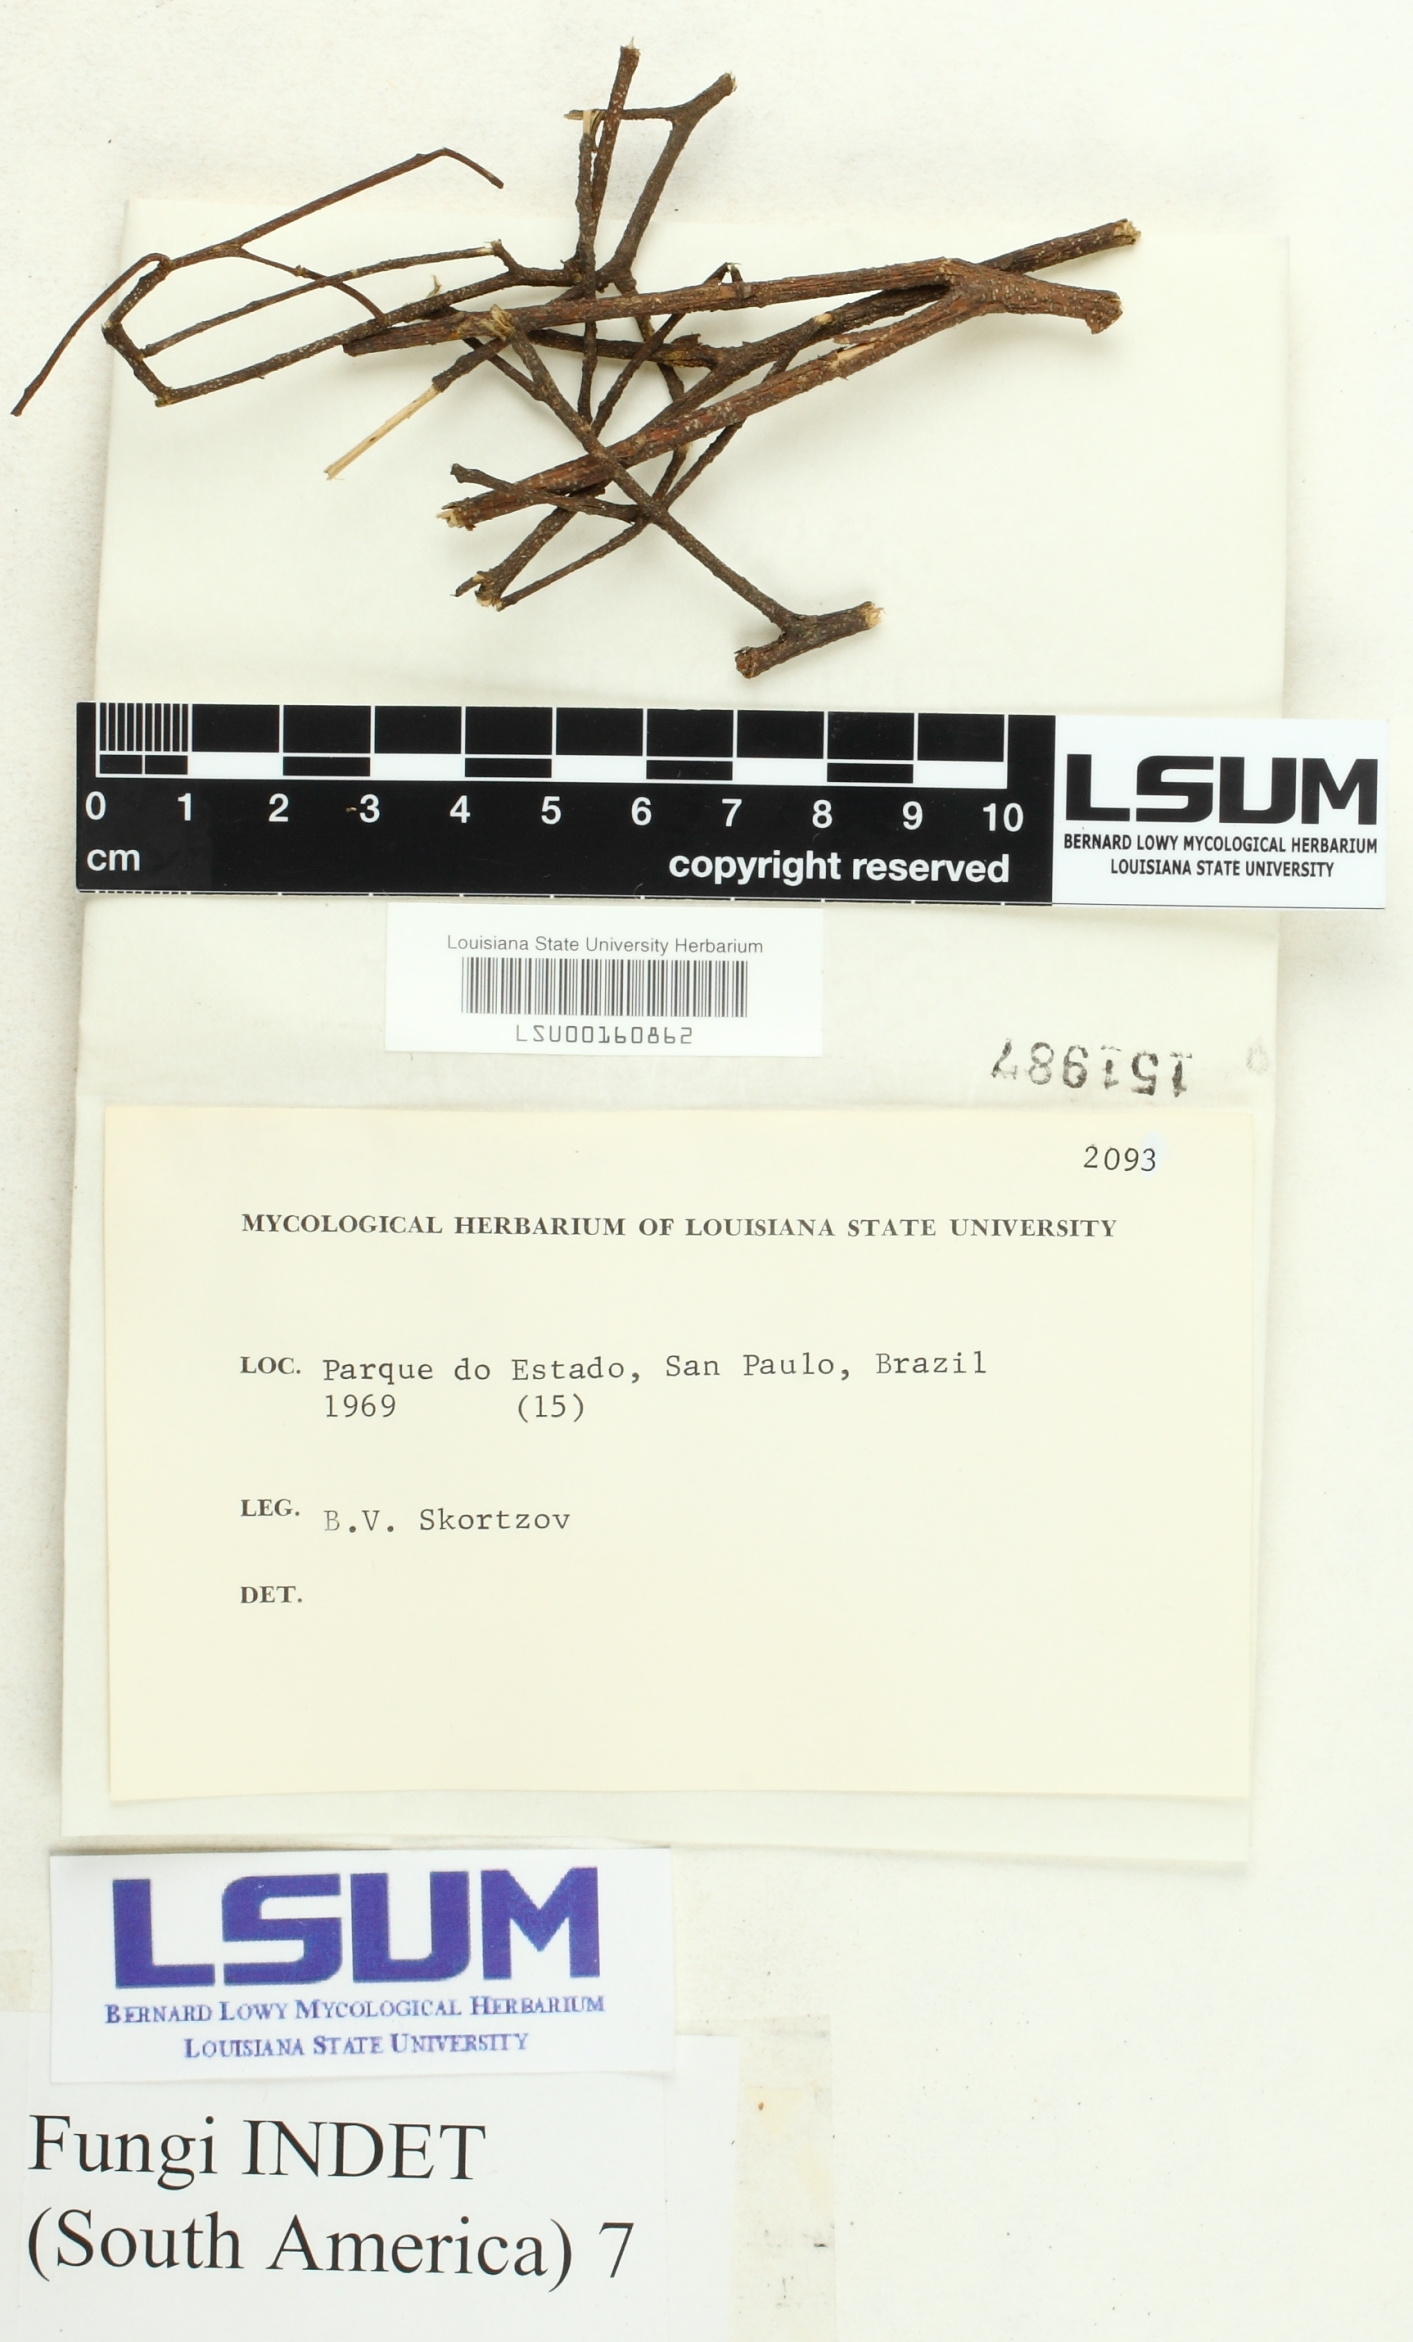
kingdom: Fungi
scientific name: Fungi
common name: Fungi
